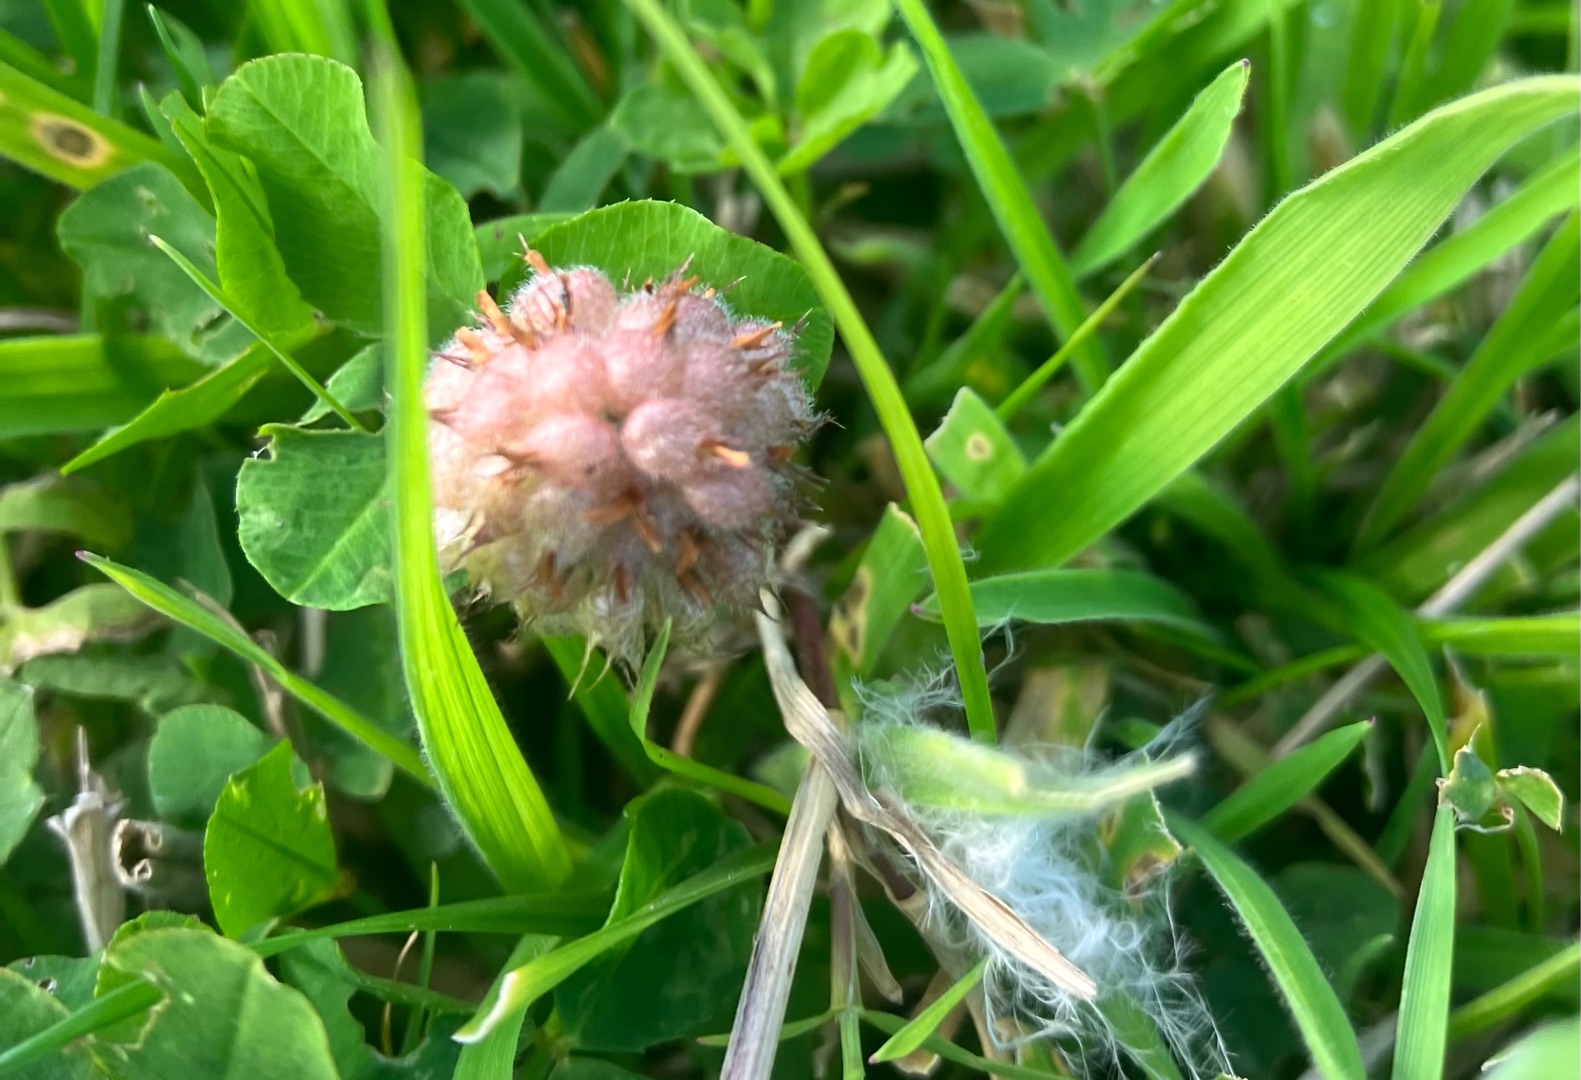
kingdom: Plantae
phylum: Tracheophyta
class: Magnoliopsida
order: Fabales
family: Fabaceae
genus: Trifolium
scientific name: Trifolium fragiferum
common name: Jordbær-kløver
